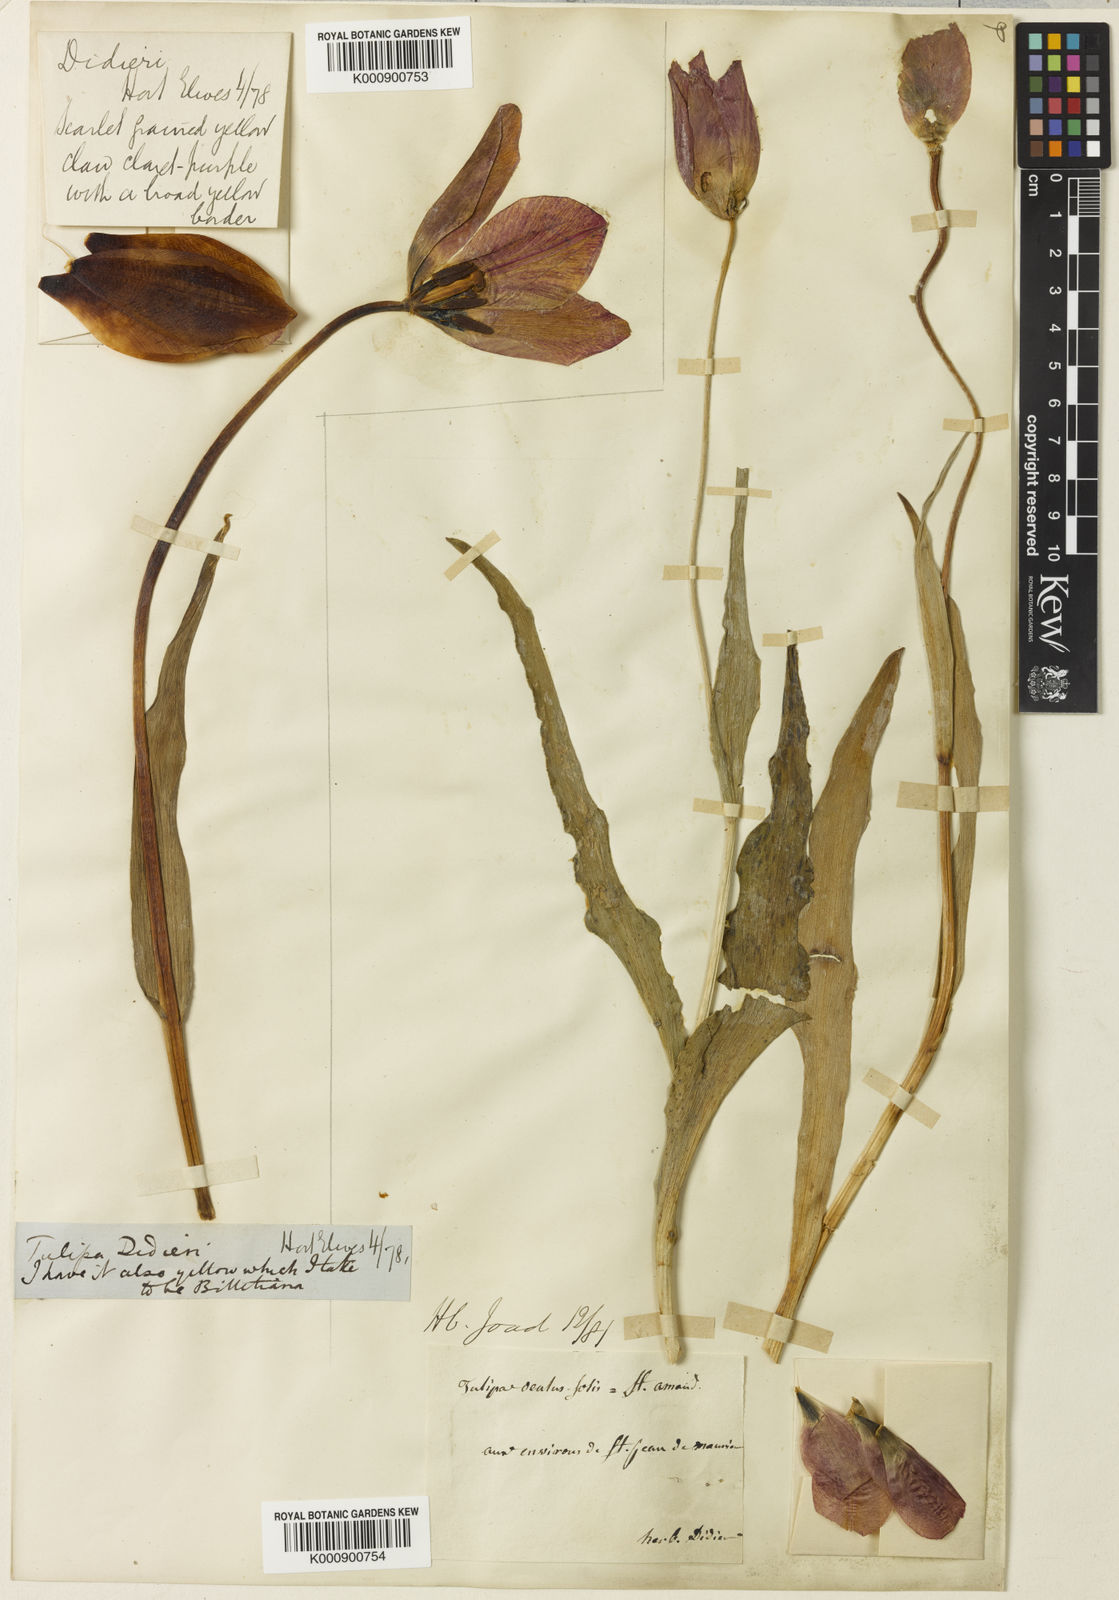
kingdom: Plantae
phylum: Tracheophyta
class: Liliopsida
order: Liliales
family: Liliaceae
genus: Tulipa
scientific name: Tulipa gesneriana
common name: Garden tulip
